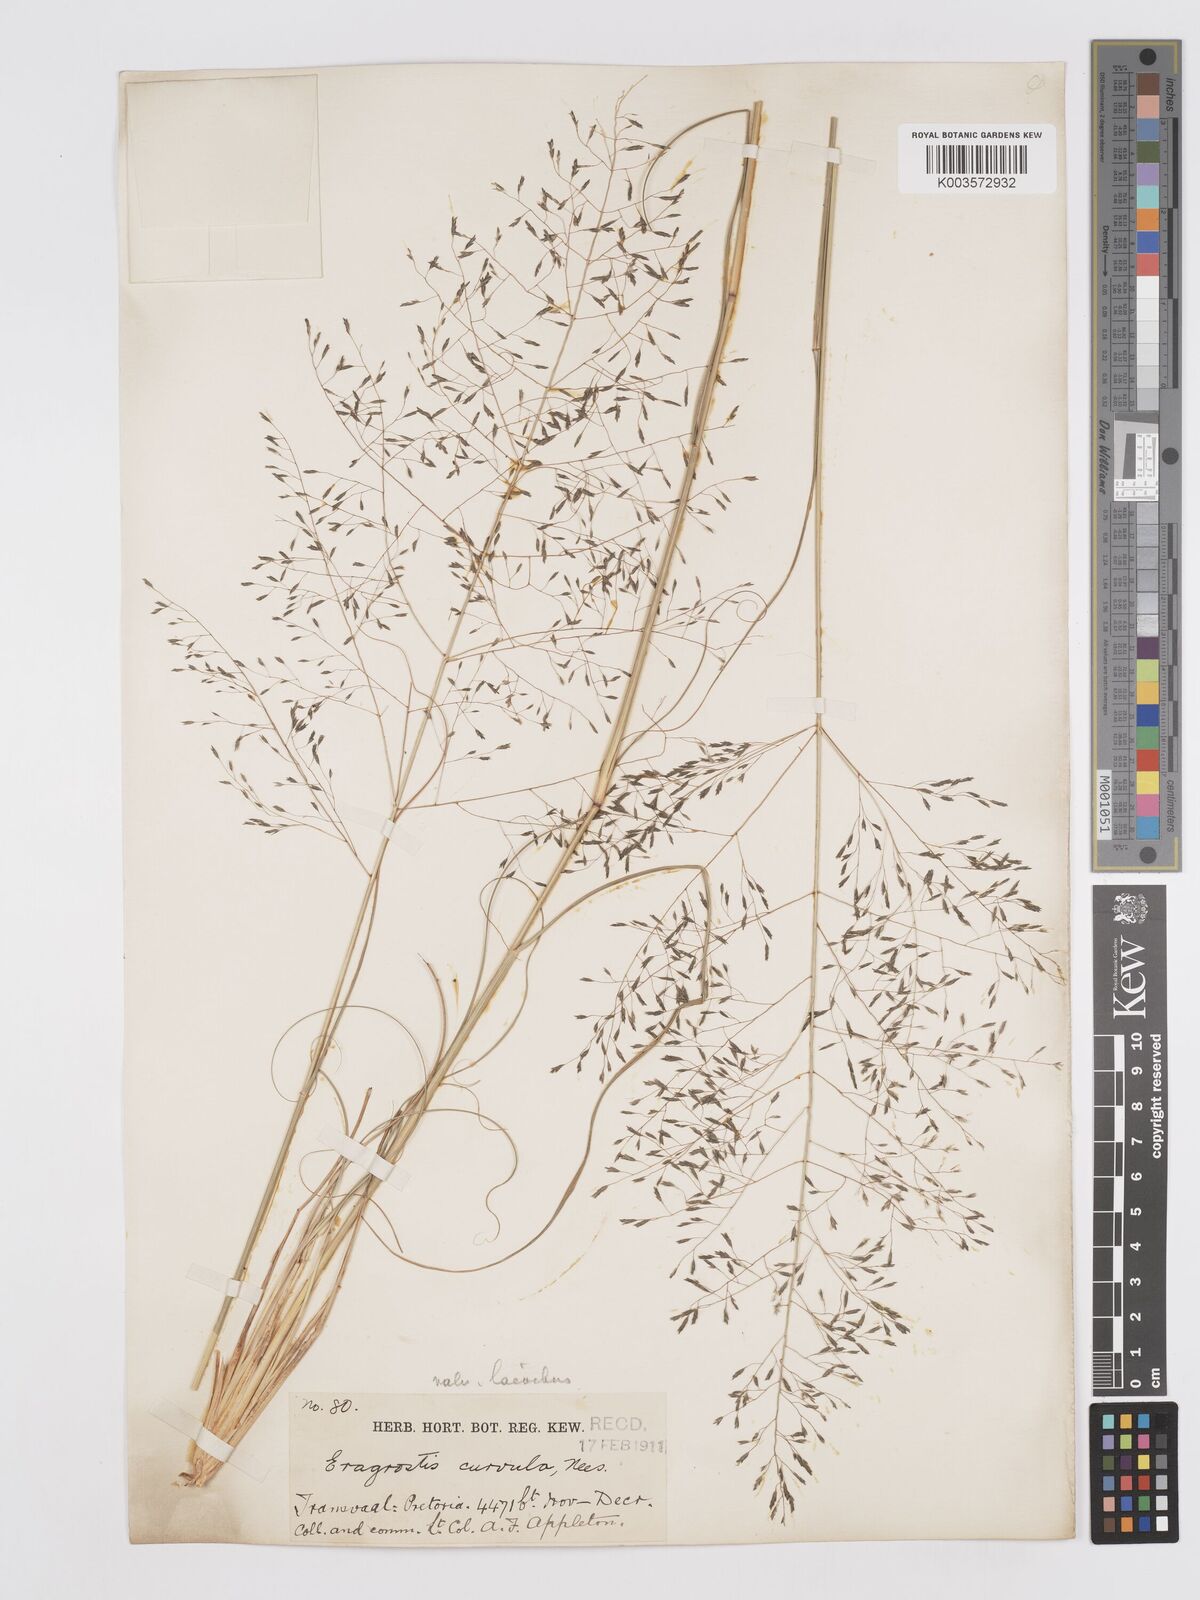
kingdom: Plantae
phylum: Tracheophyta
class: Liliopsida
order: Poales
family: Poaceae
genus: Eragrostis
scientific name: Eragrostis curvula
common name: African love-grass
